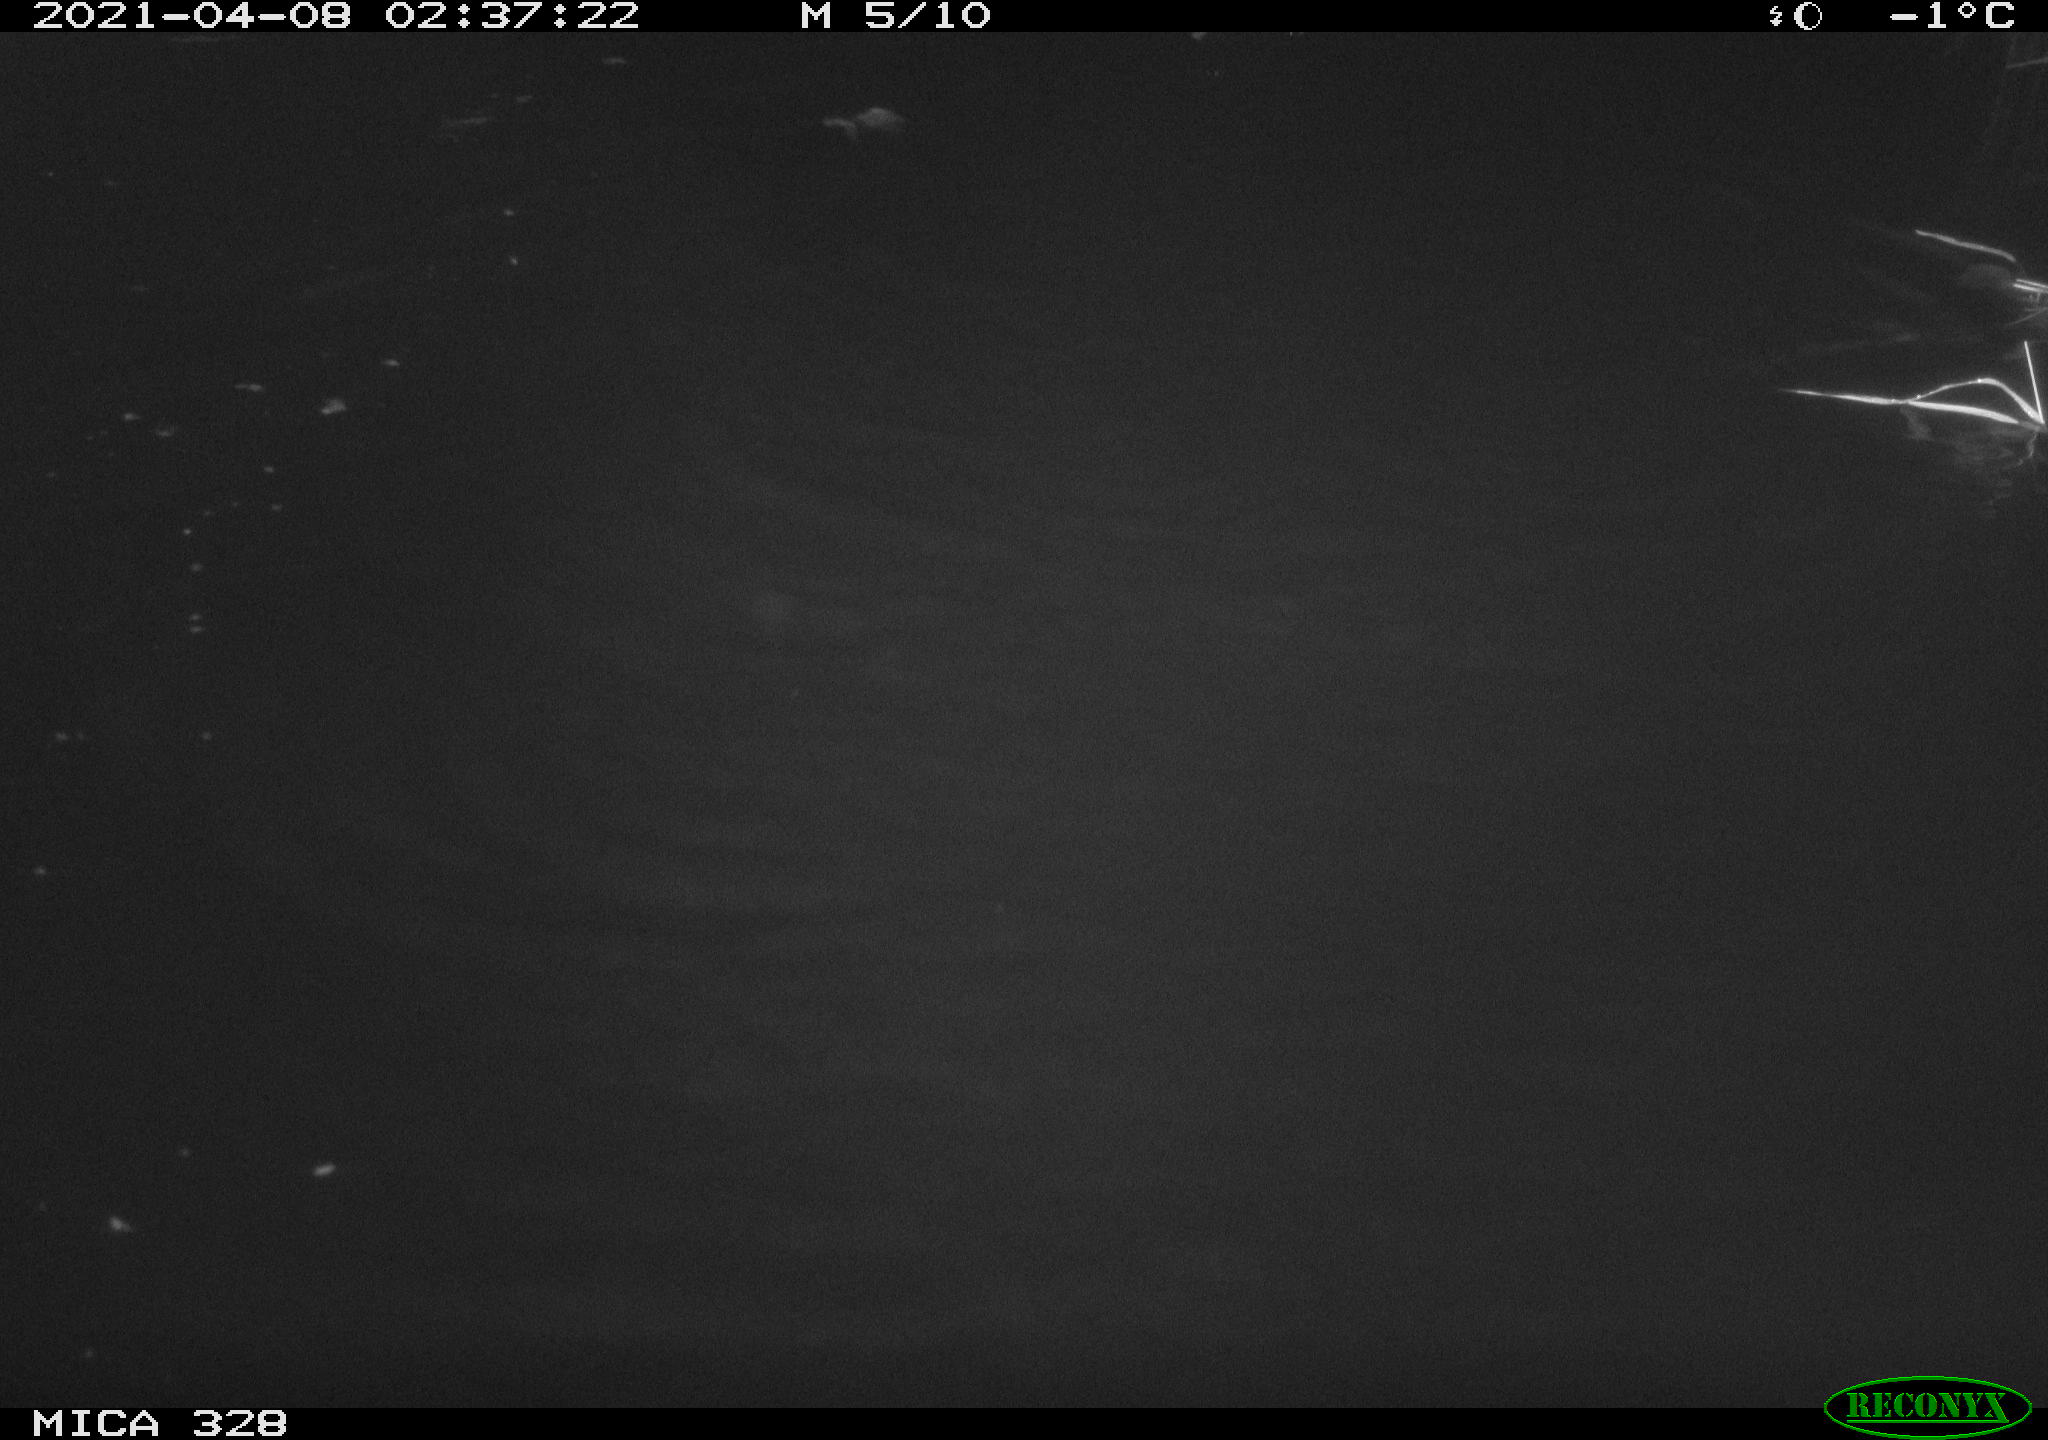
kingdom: Animalia
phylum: Chordata
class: Mammalia
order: Rodentia
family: Cricetidae
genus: Ondatra
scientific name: Ondatra zibethicus
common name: Muskrat
